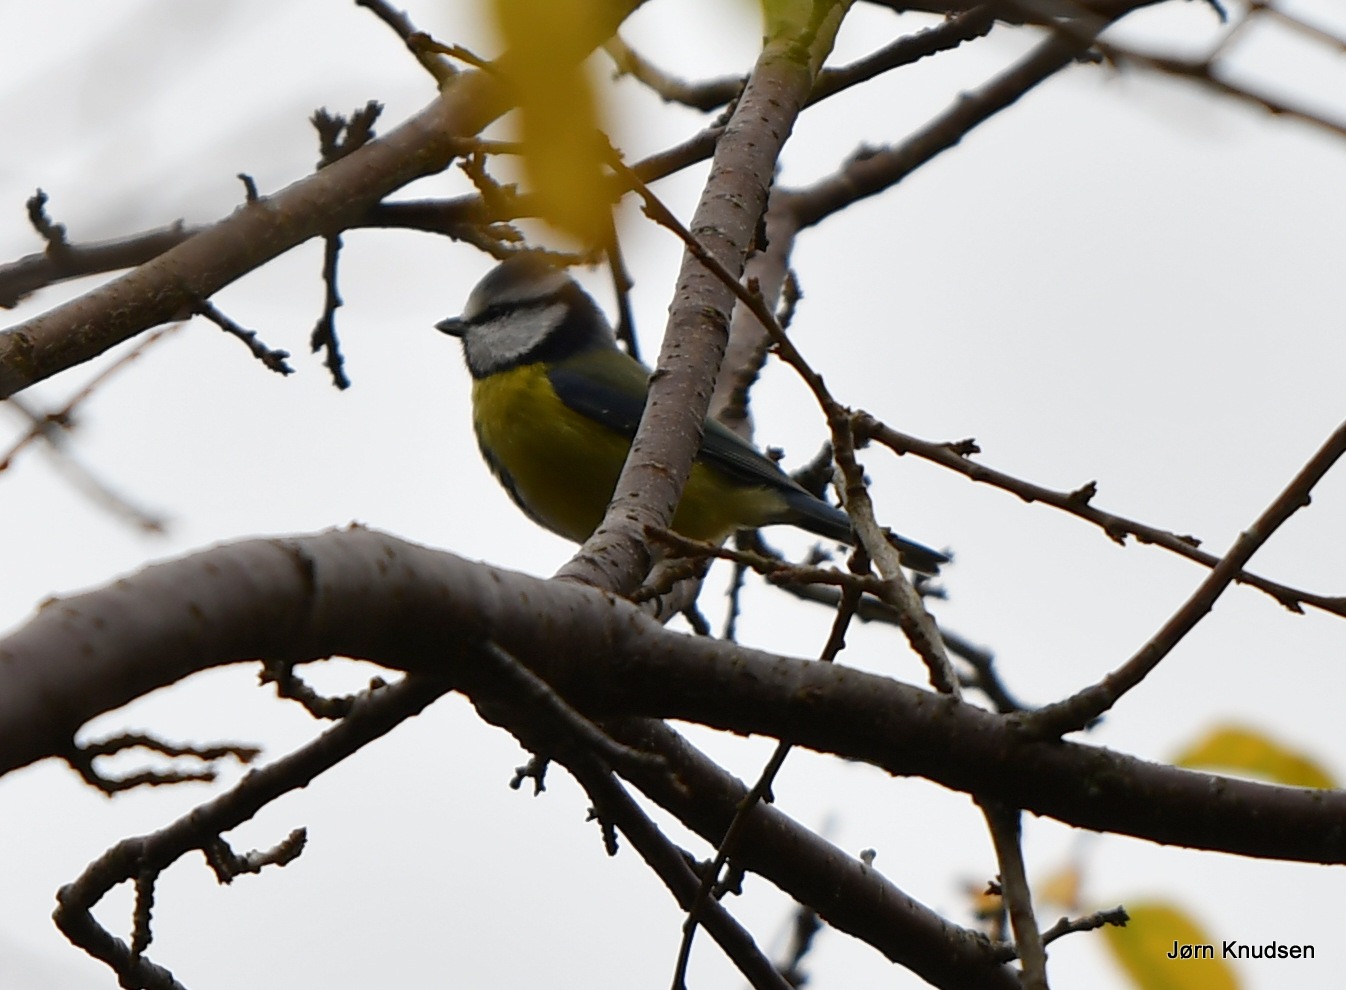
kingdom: Animalia
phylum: Chordata
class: Aves
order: Passeriformes
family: Paridae
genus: Cyanistes
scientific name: Cyanistes caeruleus
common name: Blåmejse
